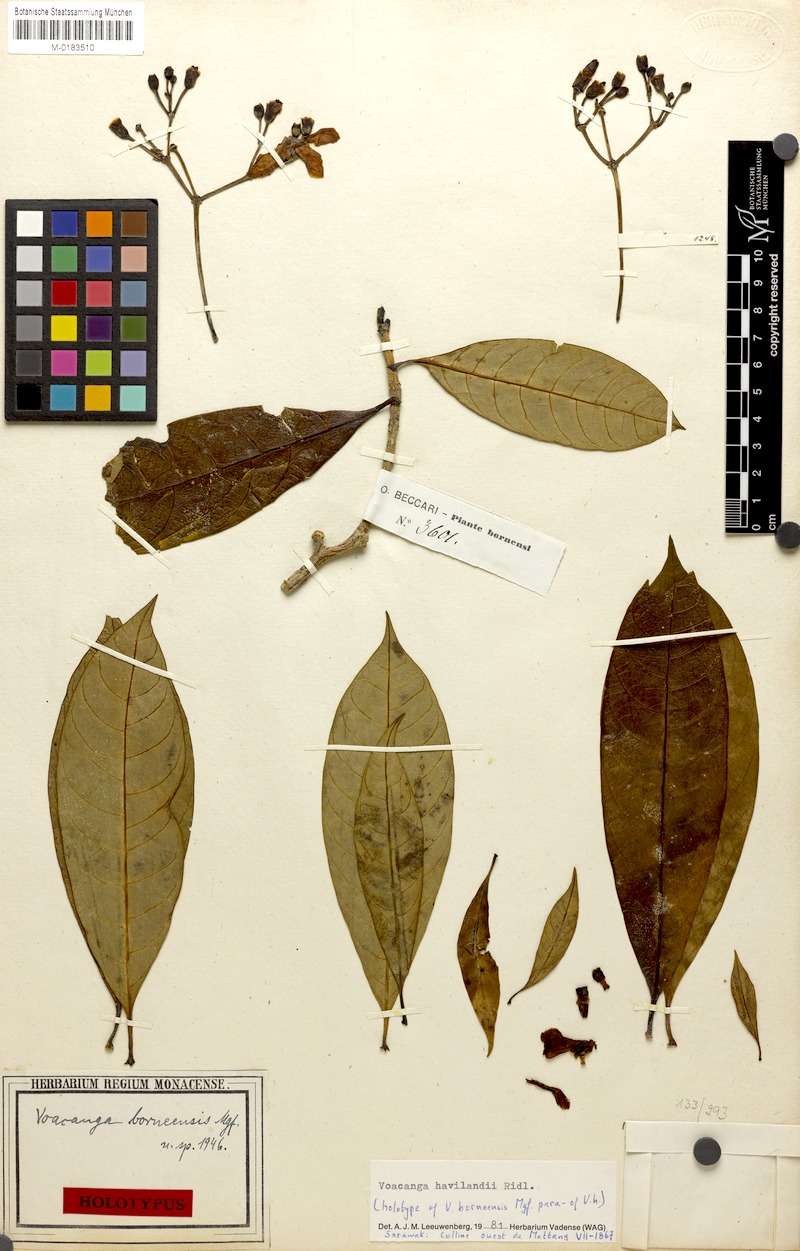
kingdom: Plantae
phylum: Tracheophyta
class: Magnoliopsida
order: Gentianales
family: Apocynaceae
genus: Voacanga
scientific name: Voacanga havilandii
